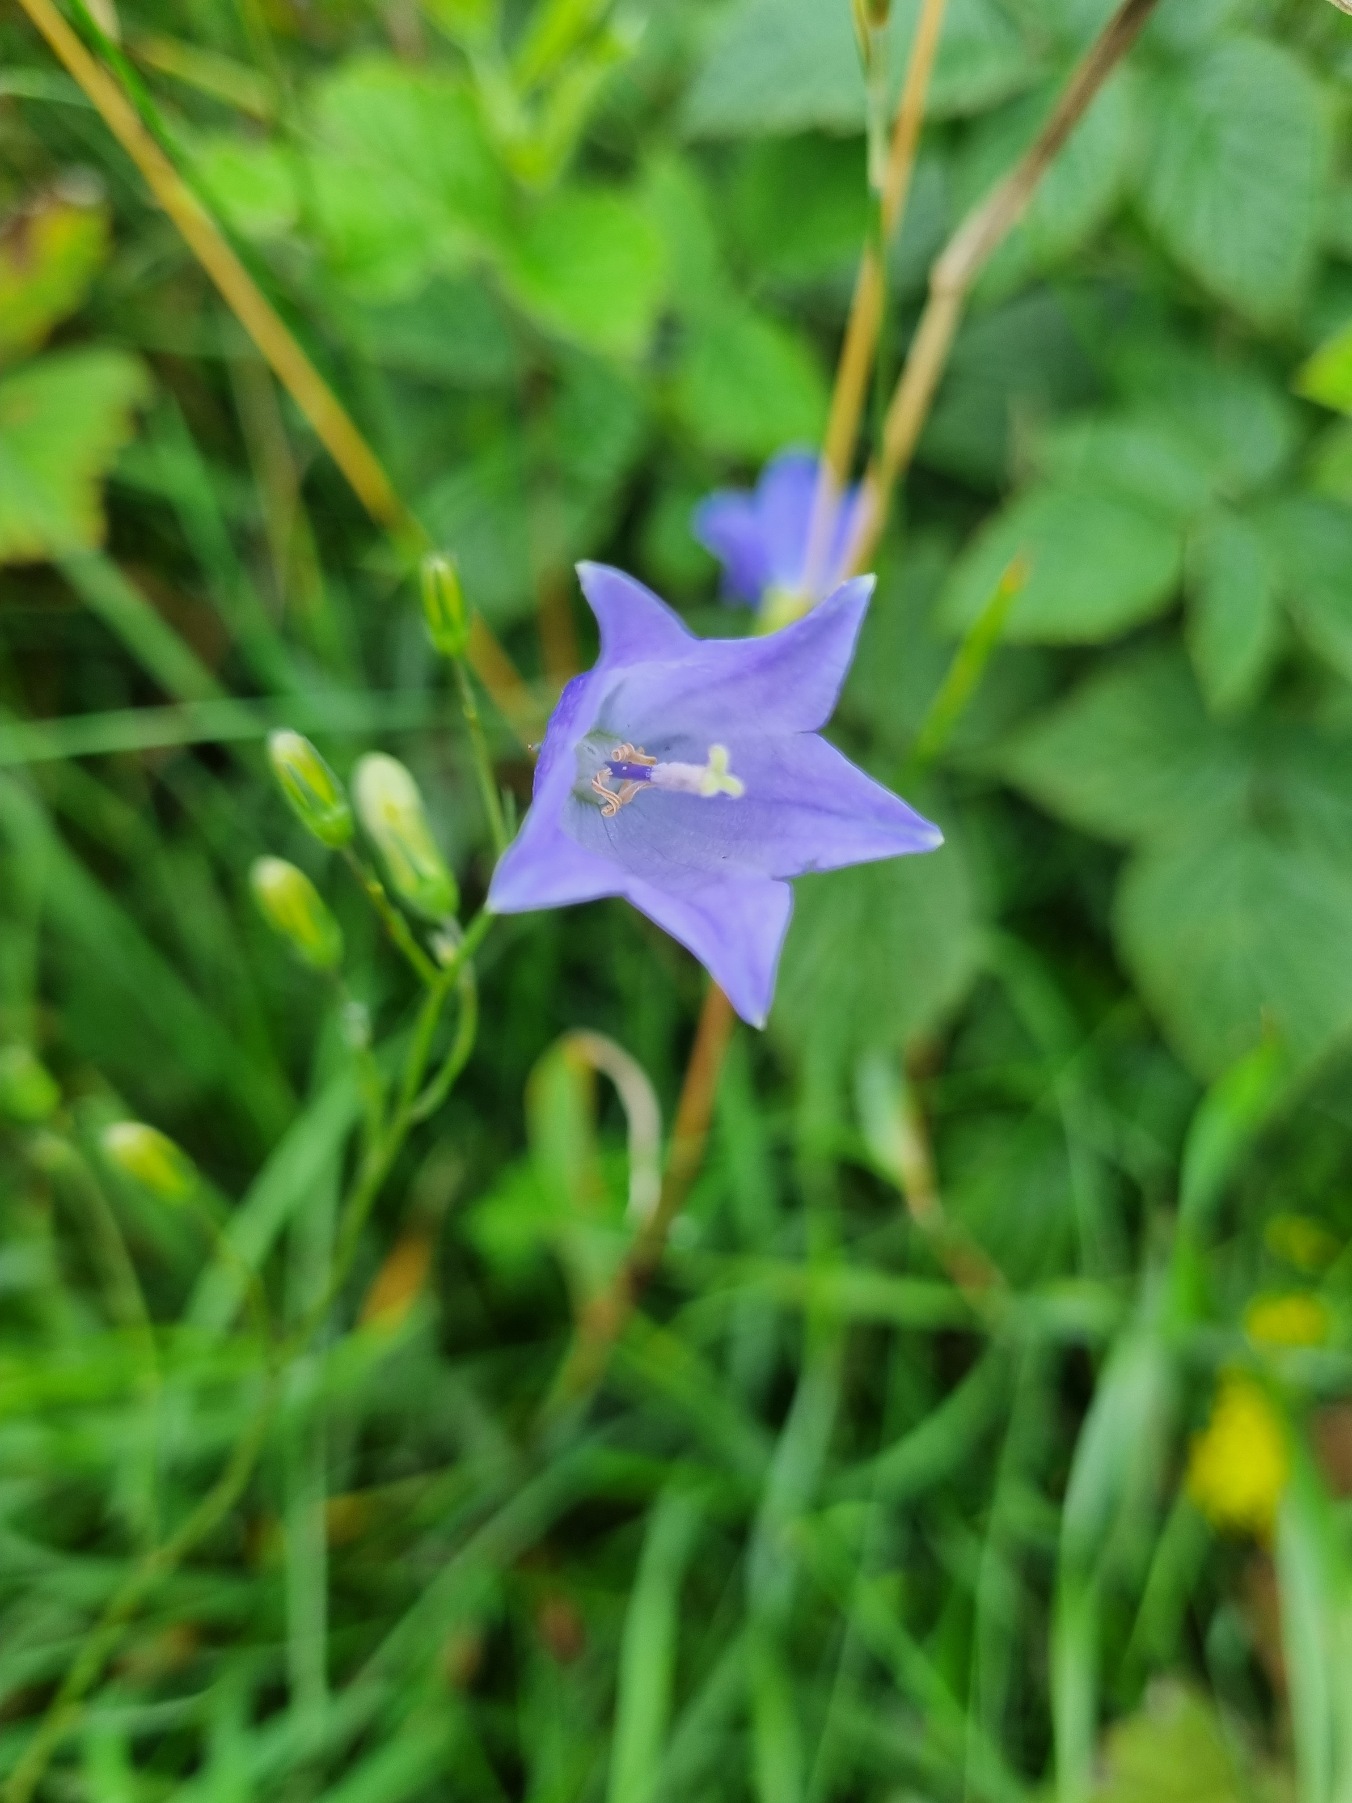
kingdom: Plantae
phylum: Tracheophyta
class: Magnoliopsida
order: Asterales
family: Campanulaceae
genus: Campanula
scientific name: Campanula rotundifolia
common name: Liden klokke
